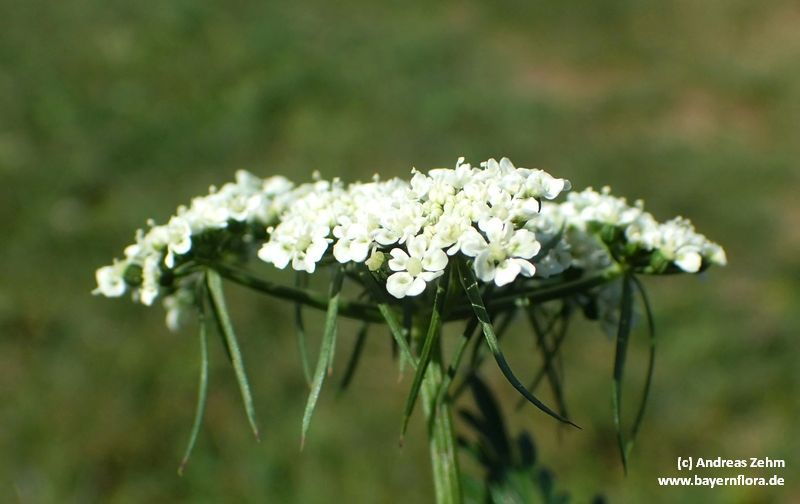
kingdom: Plantae
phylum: Tracheophyta
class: Magnoliopsida
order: Apiales
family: Apiaceae
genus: Aethusa
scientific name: Aethusa cynapium
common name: Fool's parsley
